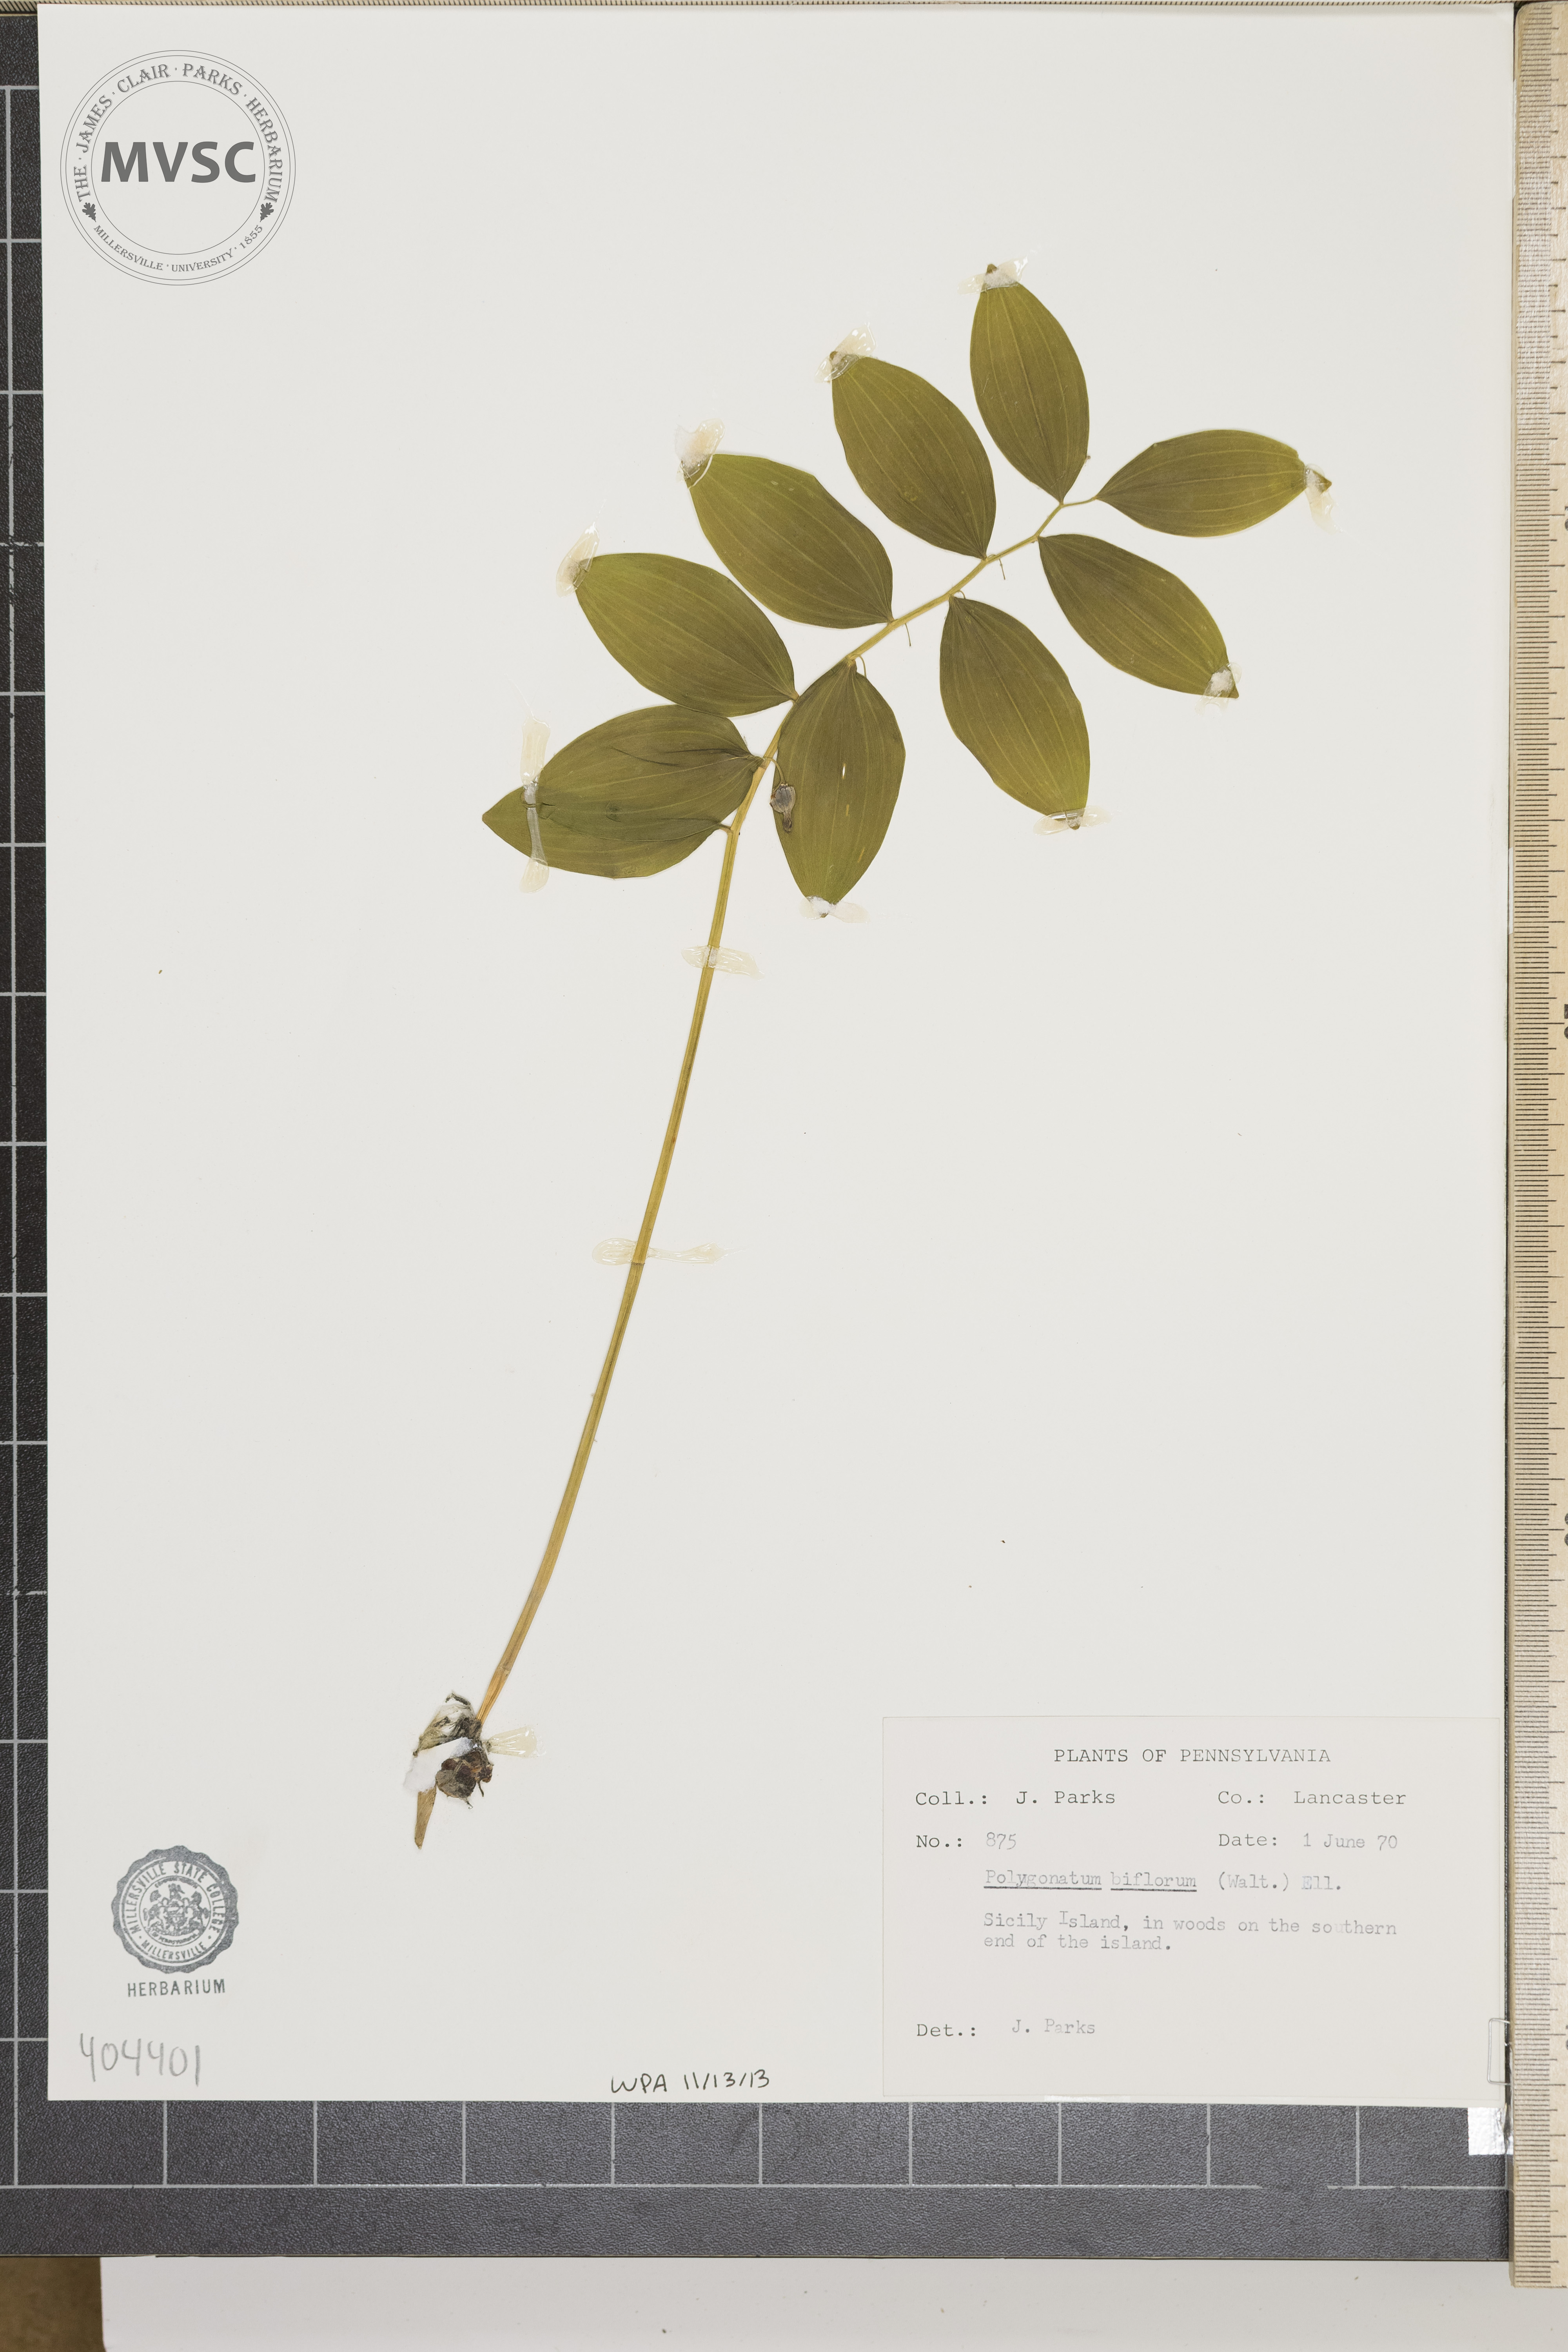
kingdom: Plantae
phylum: Tracheophyta
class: Liliopsida
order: Asparagales
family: Asparagaceae
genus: Polygonatum
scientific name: Polygonatum biflorum
